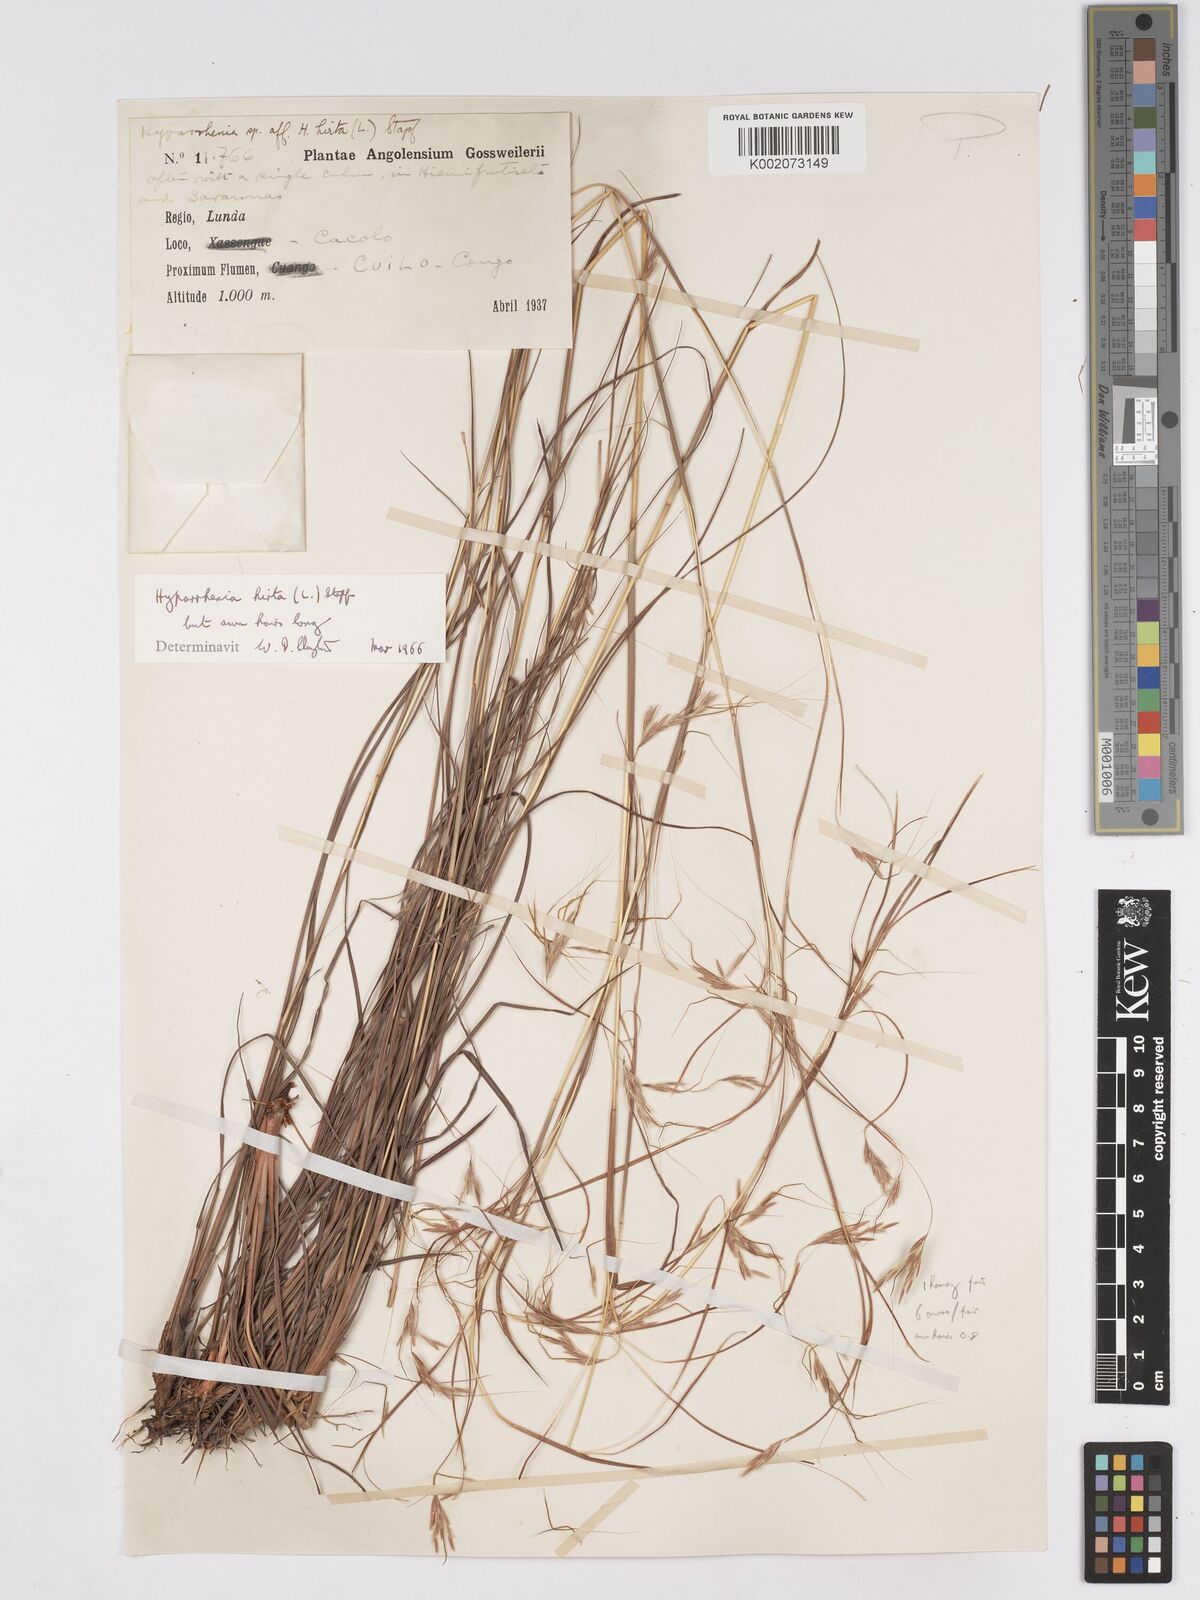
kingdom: Plantae
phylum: Tracheophyta
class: Liliopsida
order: Poales
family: Poaceae
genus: Hyparrhenia
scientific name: Hyparrhenia hirta
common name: Thatching grass
